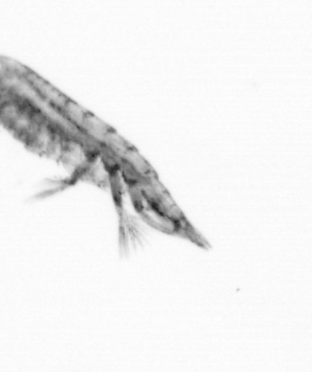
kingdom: Animalia
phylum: Arthropoda
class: Copepoda
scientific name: Copepoda
